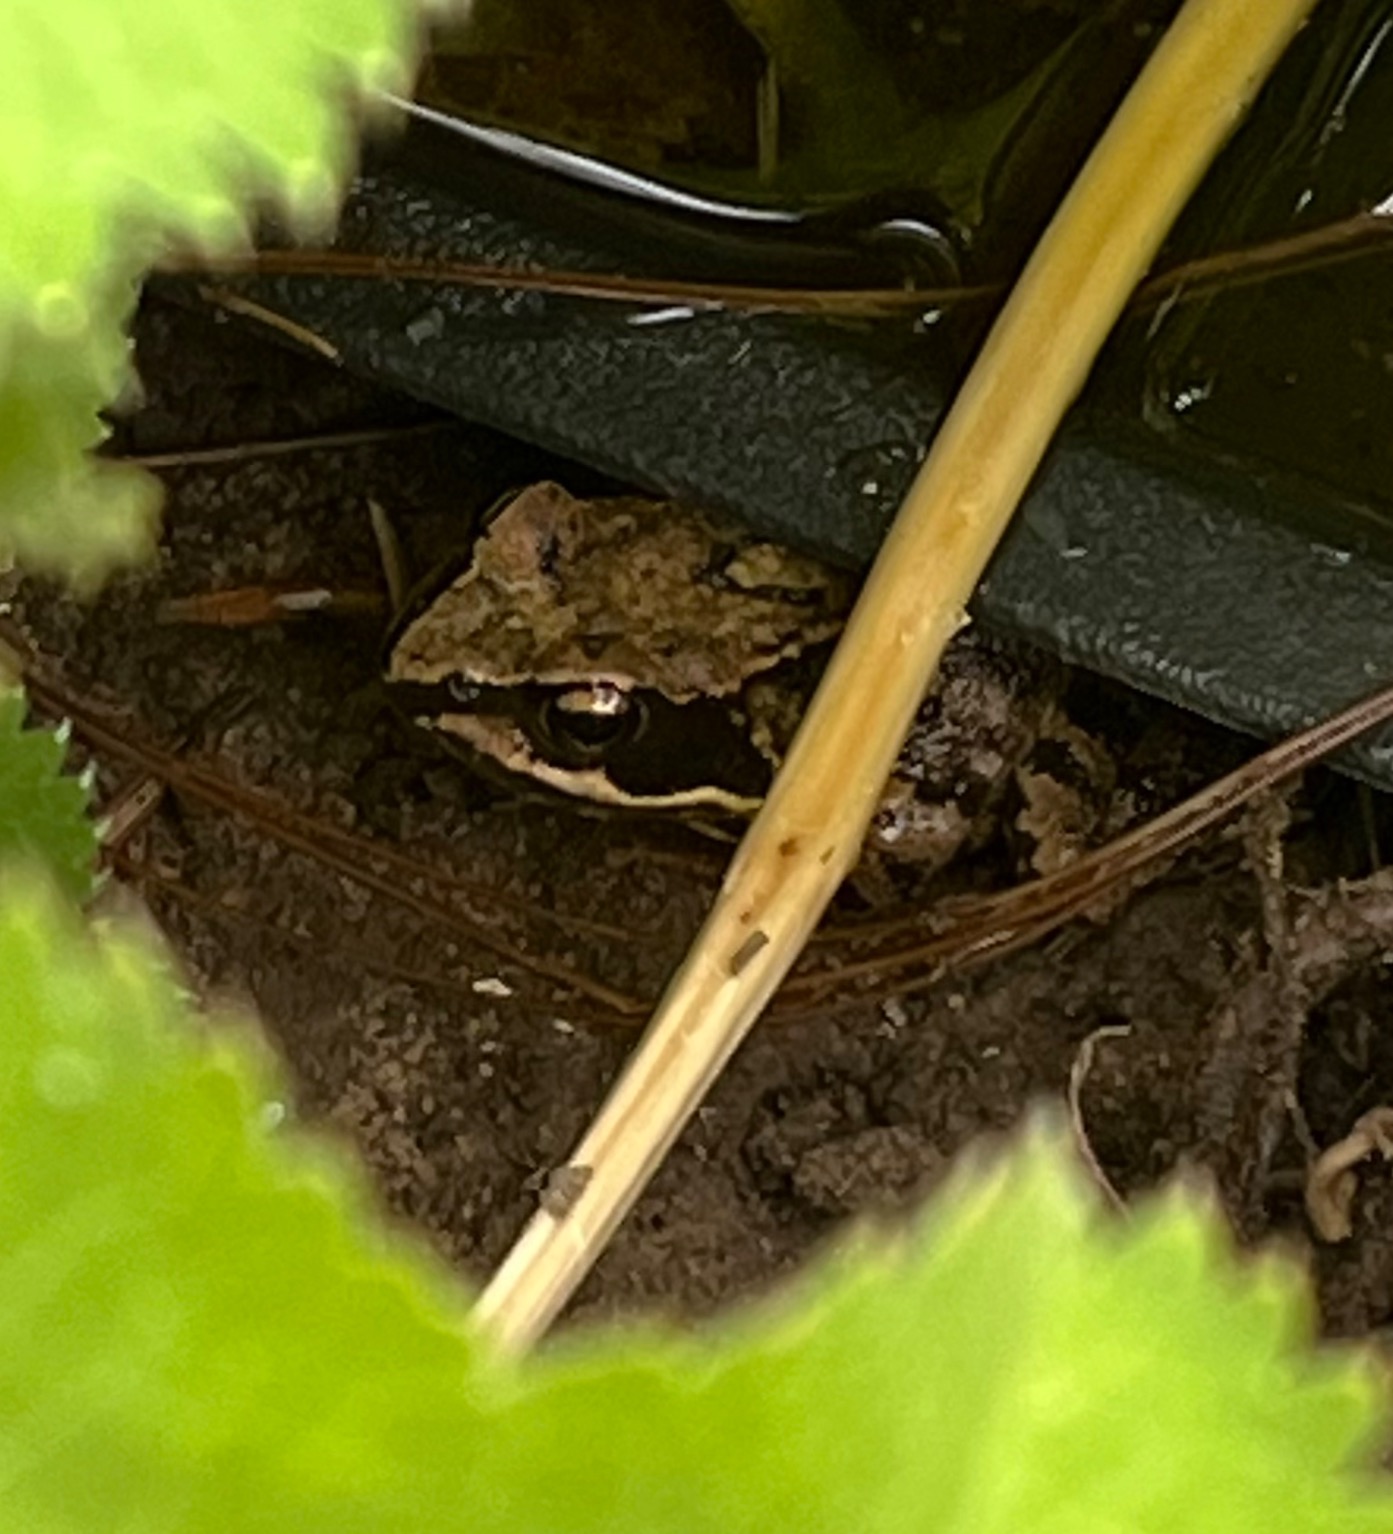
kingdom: Animalia
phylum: Chordata
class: Amphibia
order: Anura
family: Ranidae
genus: Rana
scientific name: Rana temporaria
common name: Butsnudet frø
